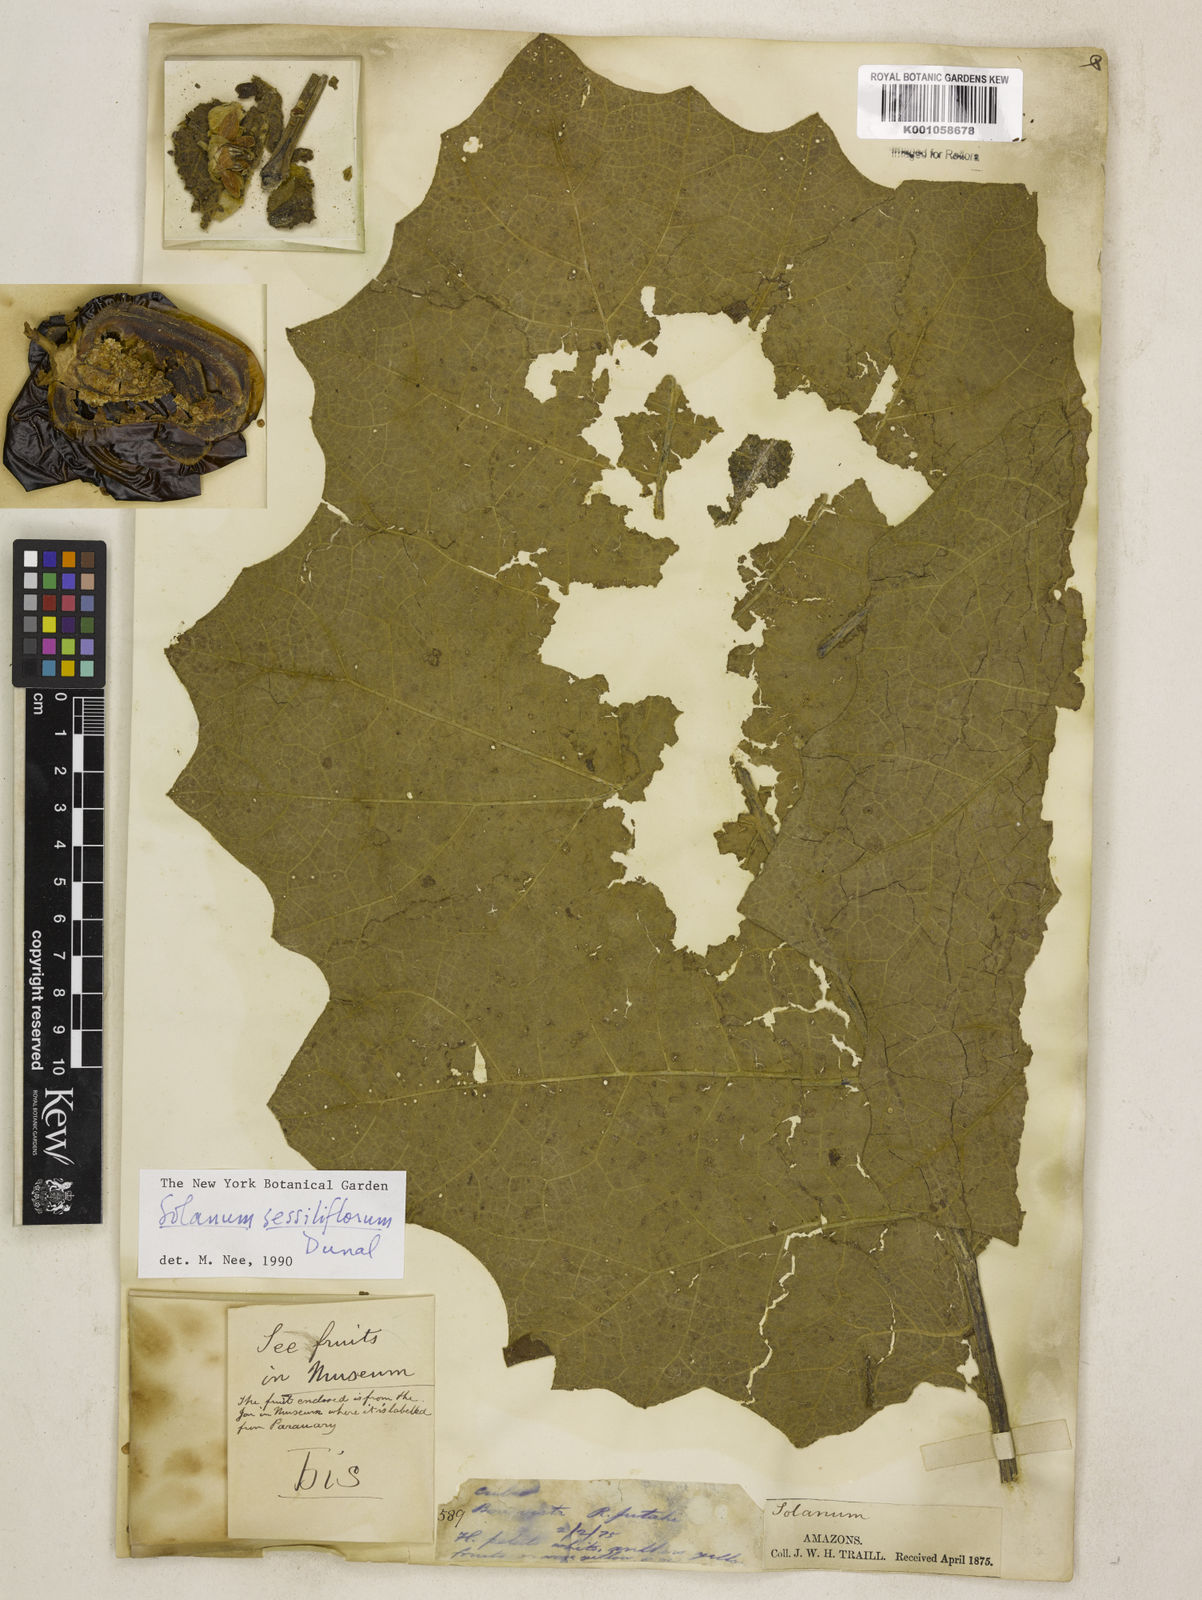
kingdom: Plantae
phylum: Tracheophyta
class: Magnoliopsida
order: Solanales
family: Solanaceae
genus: Solanum
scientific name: Solanum sessiliflorum
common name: Orinoco-apple
